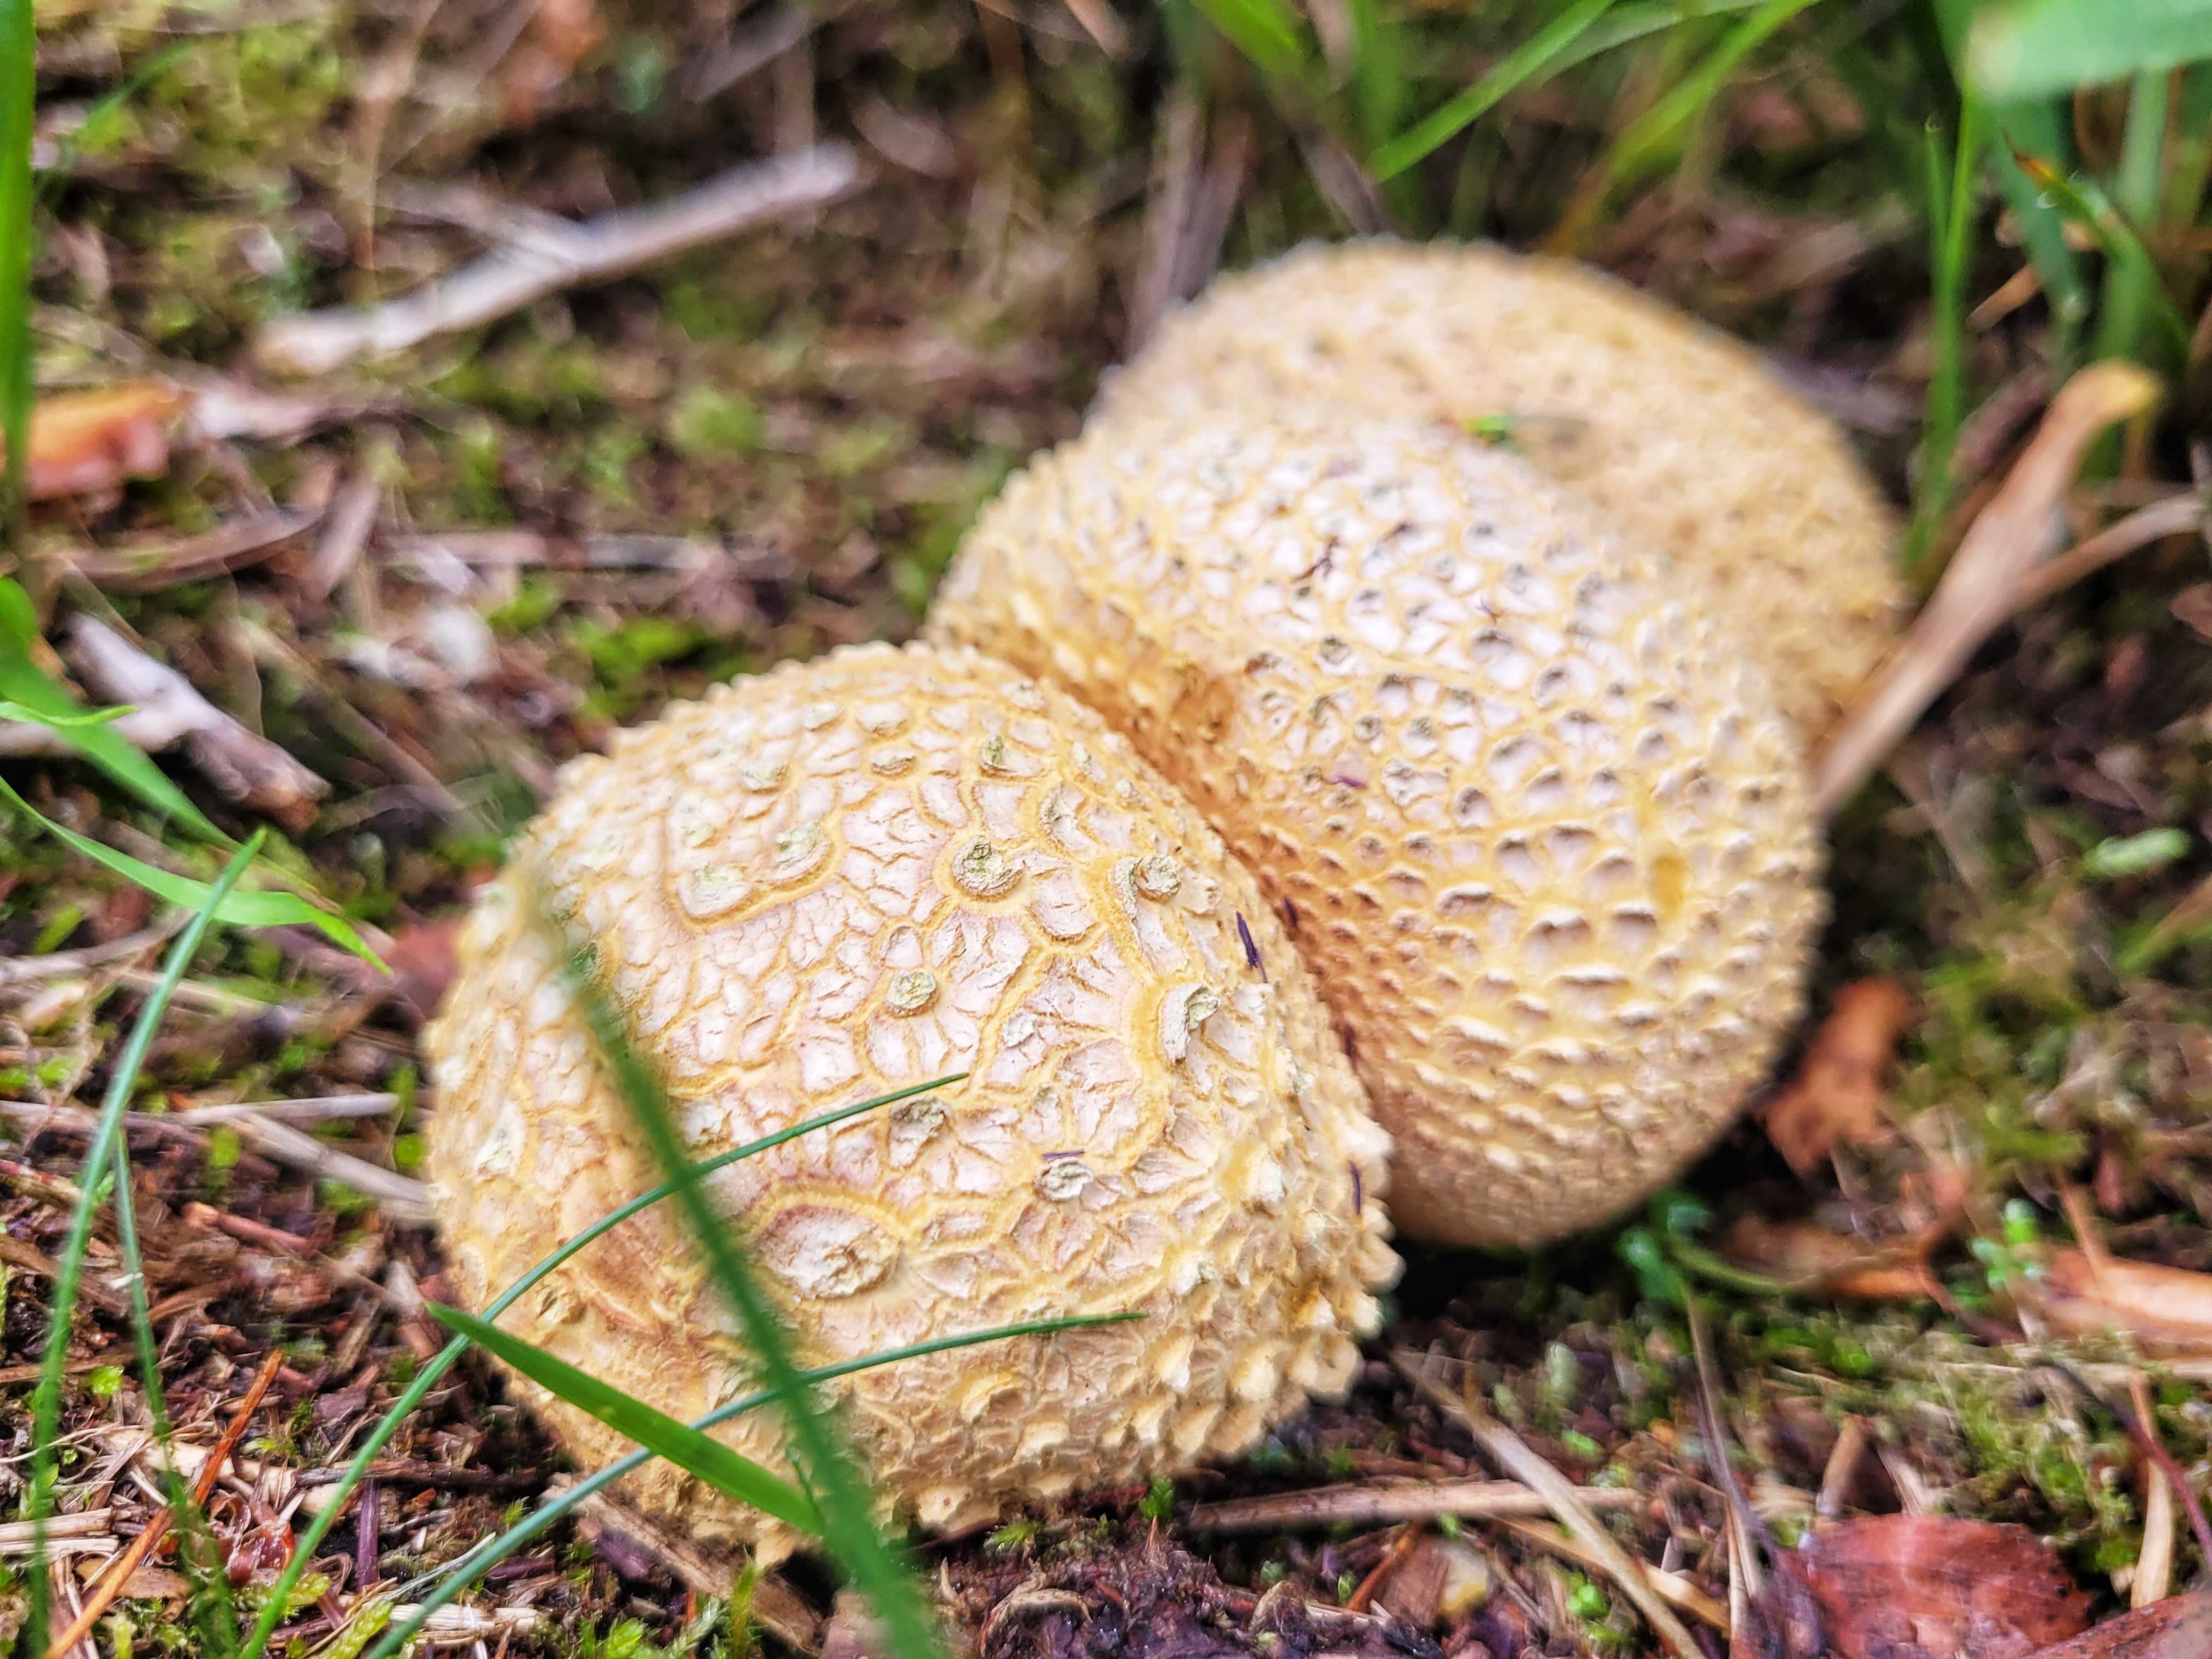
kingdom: Fungi
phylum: Basidiomycota
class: Agaricomycetes
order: Boletales
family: Sclerodermataceae
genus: Scleroderma
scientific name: Scleroderma citrinum
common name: almindelig bruskbold
